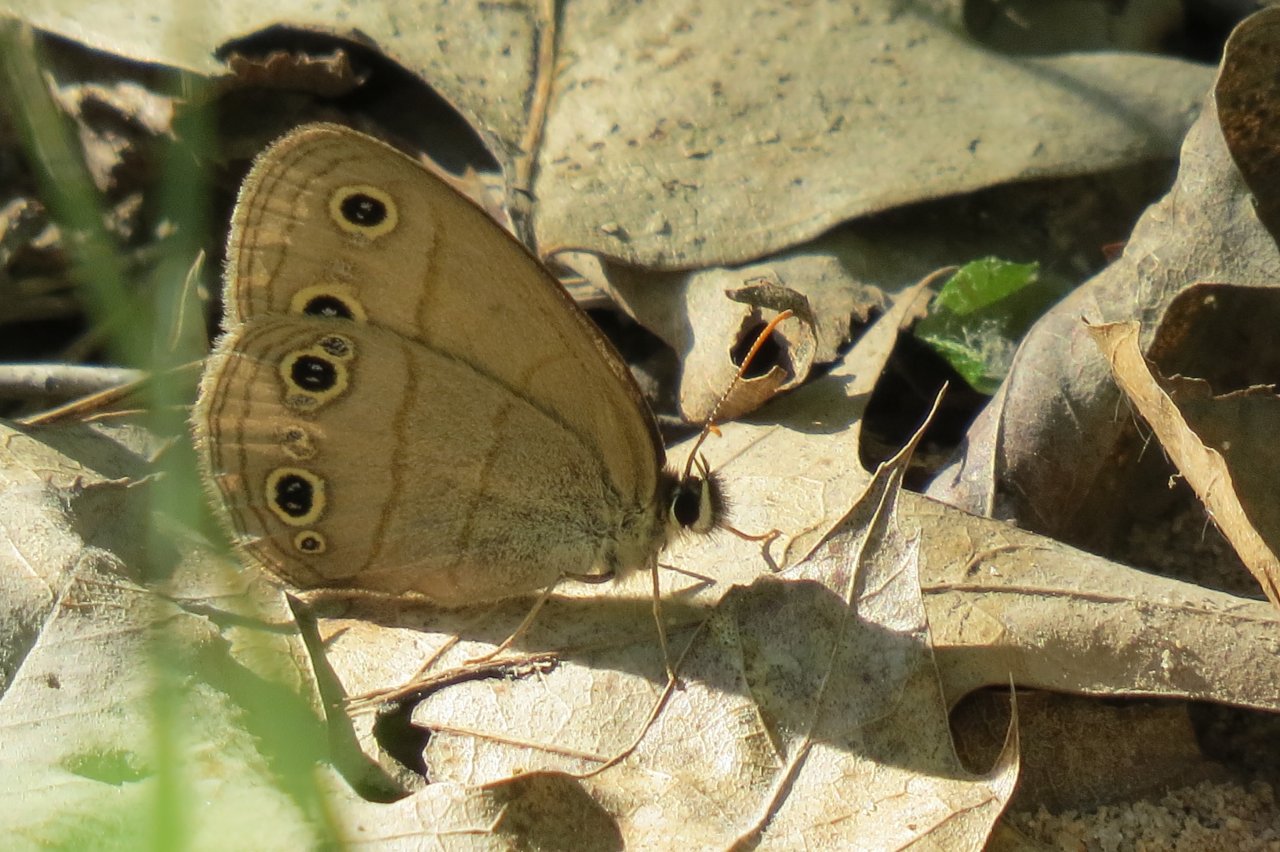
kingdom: Animalia
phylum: Arthropoda
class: Insecta
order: Lepidoptera
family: Nymphalidae
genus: Euptychia
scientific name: Euptychia cymela
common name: Little Wood Satyr
